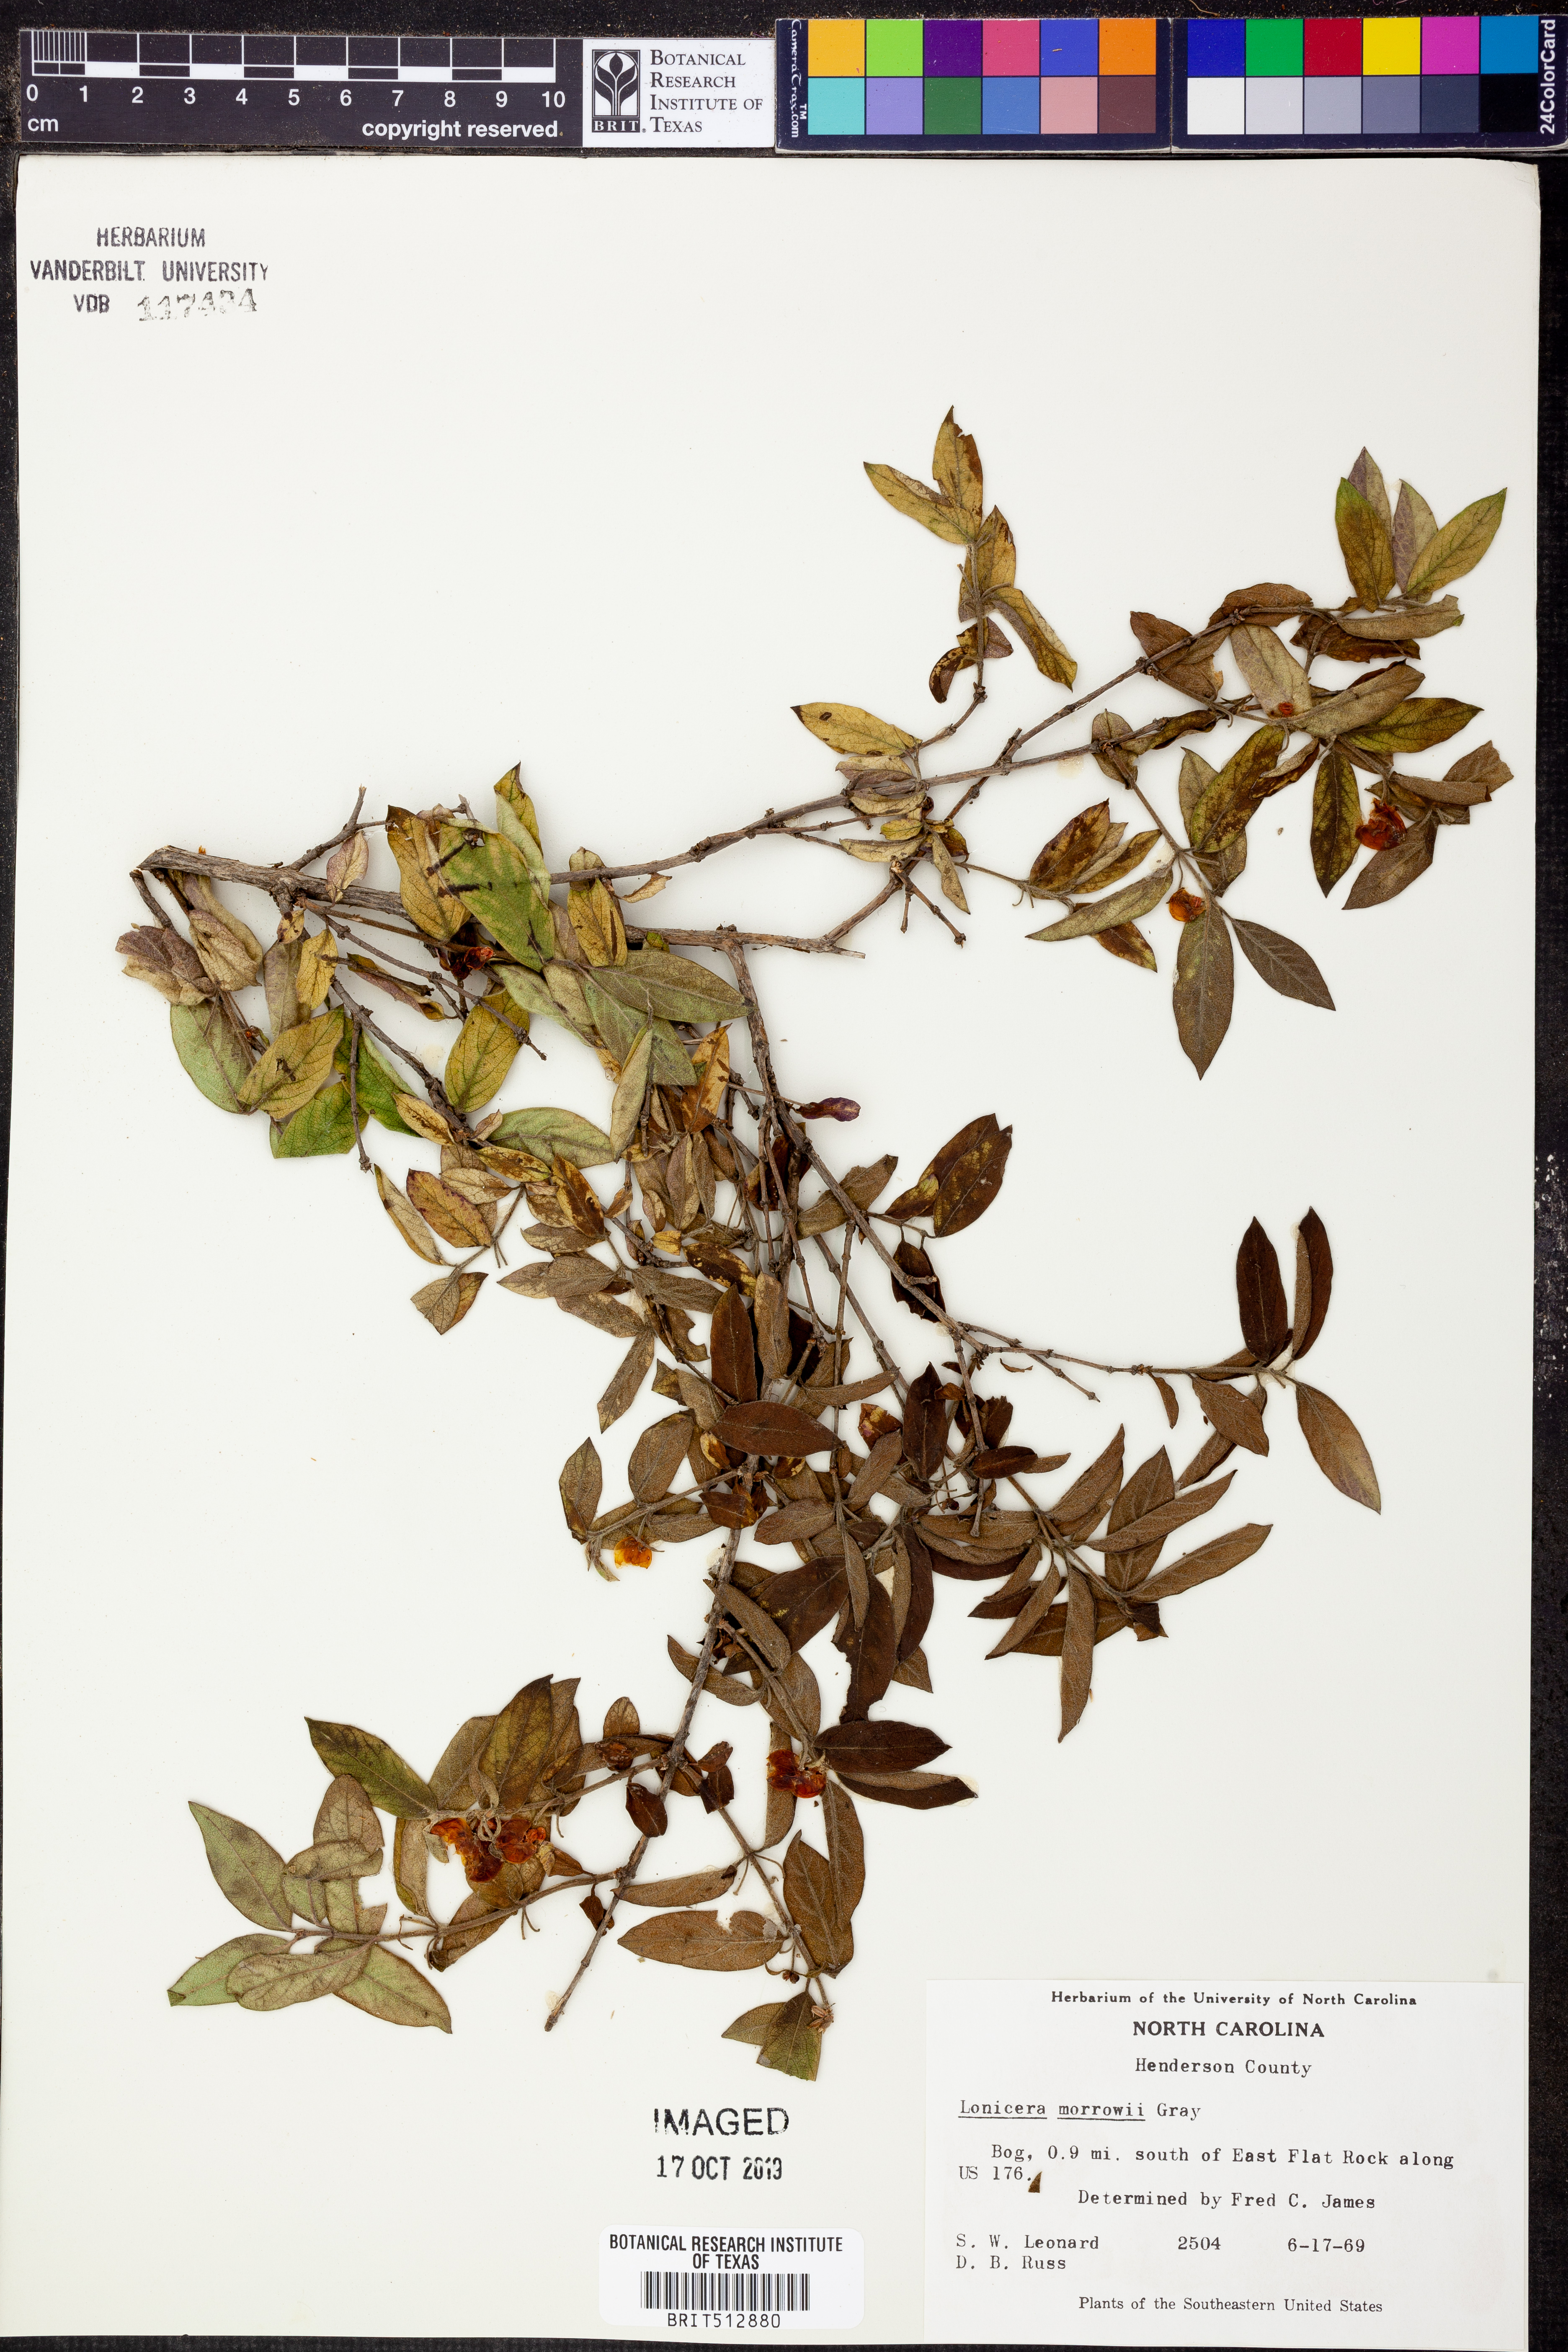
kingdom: Plantae
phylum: Tracheophyta
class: Magnoliopsida
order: Dipsacales
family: Caprifoliaceae
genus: Lonicera
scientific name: Lonicera morrowii
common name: Morrow's honeysuckle
